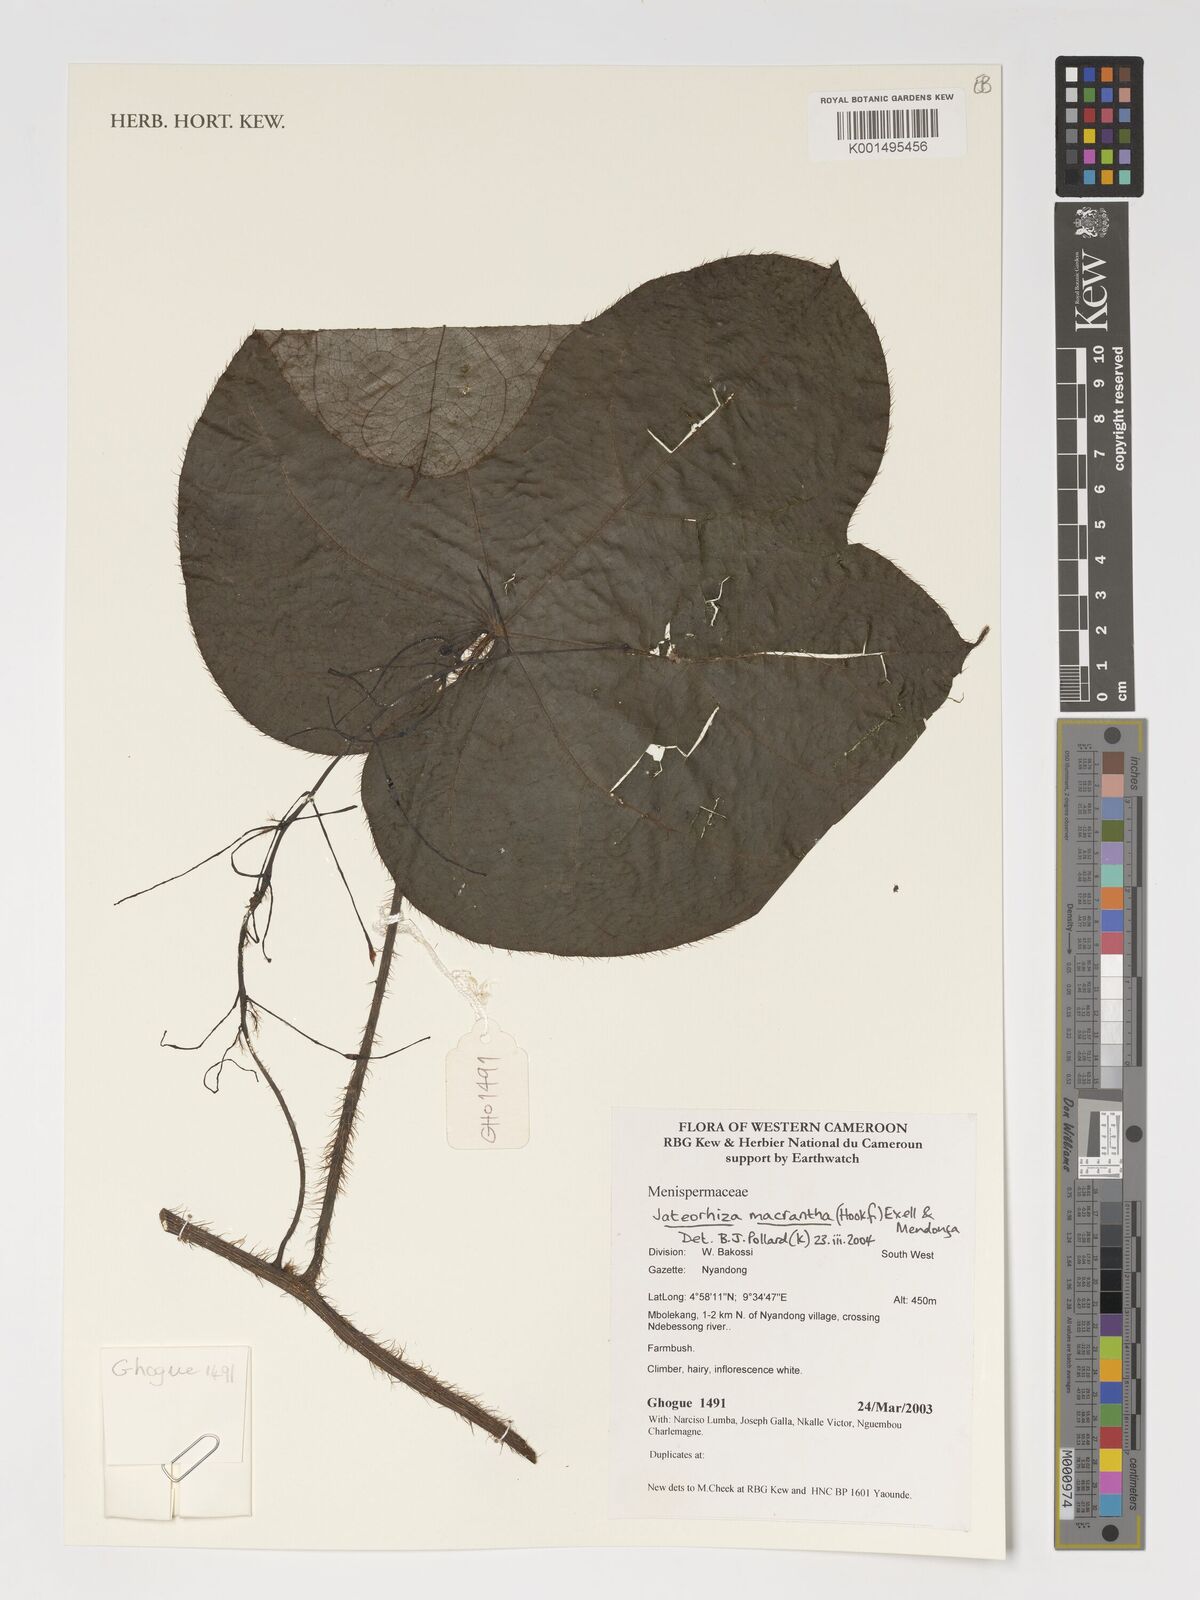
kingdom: Plantae
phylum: Tracheophyta
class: Magnoliopsida
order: Ranunculales
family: Menispermaceae
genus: Jateorhiza
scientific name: Jateorhiza macrantha
